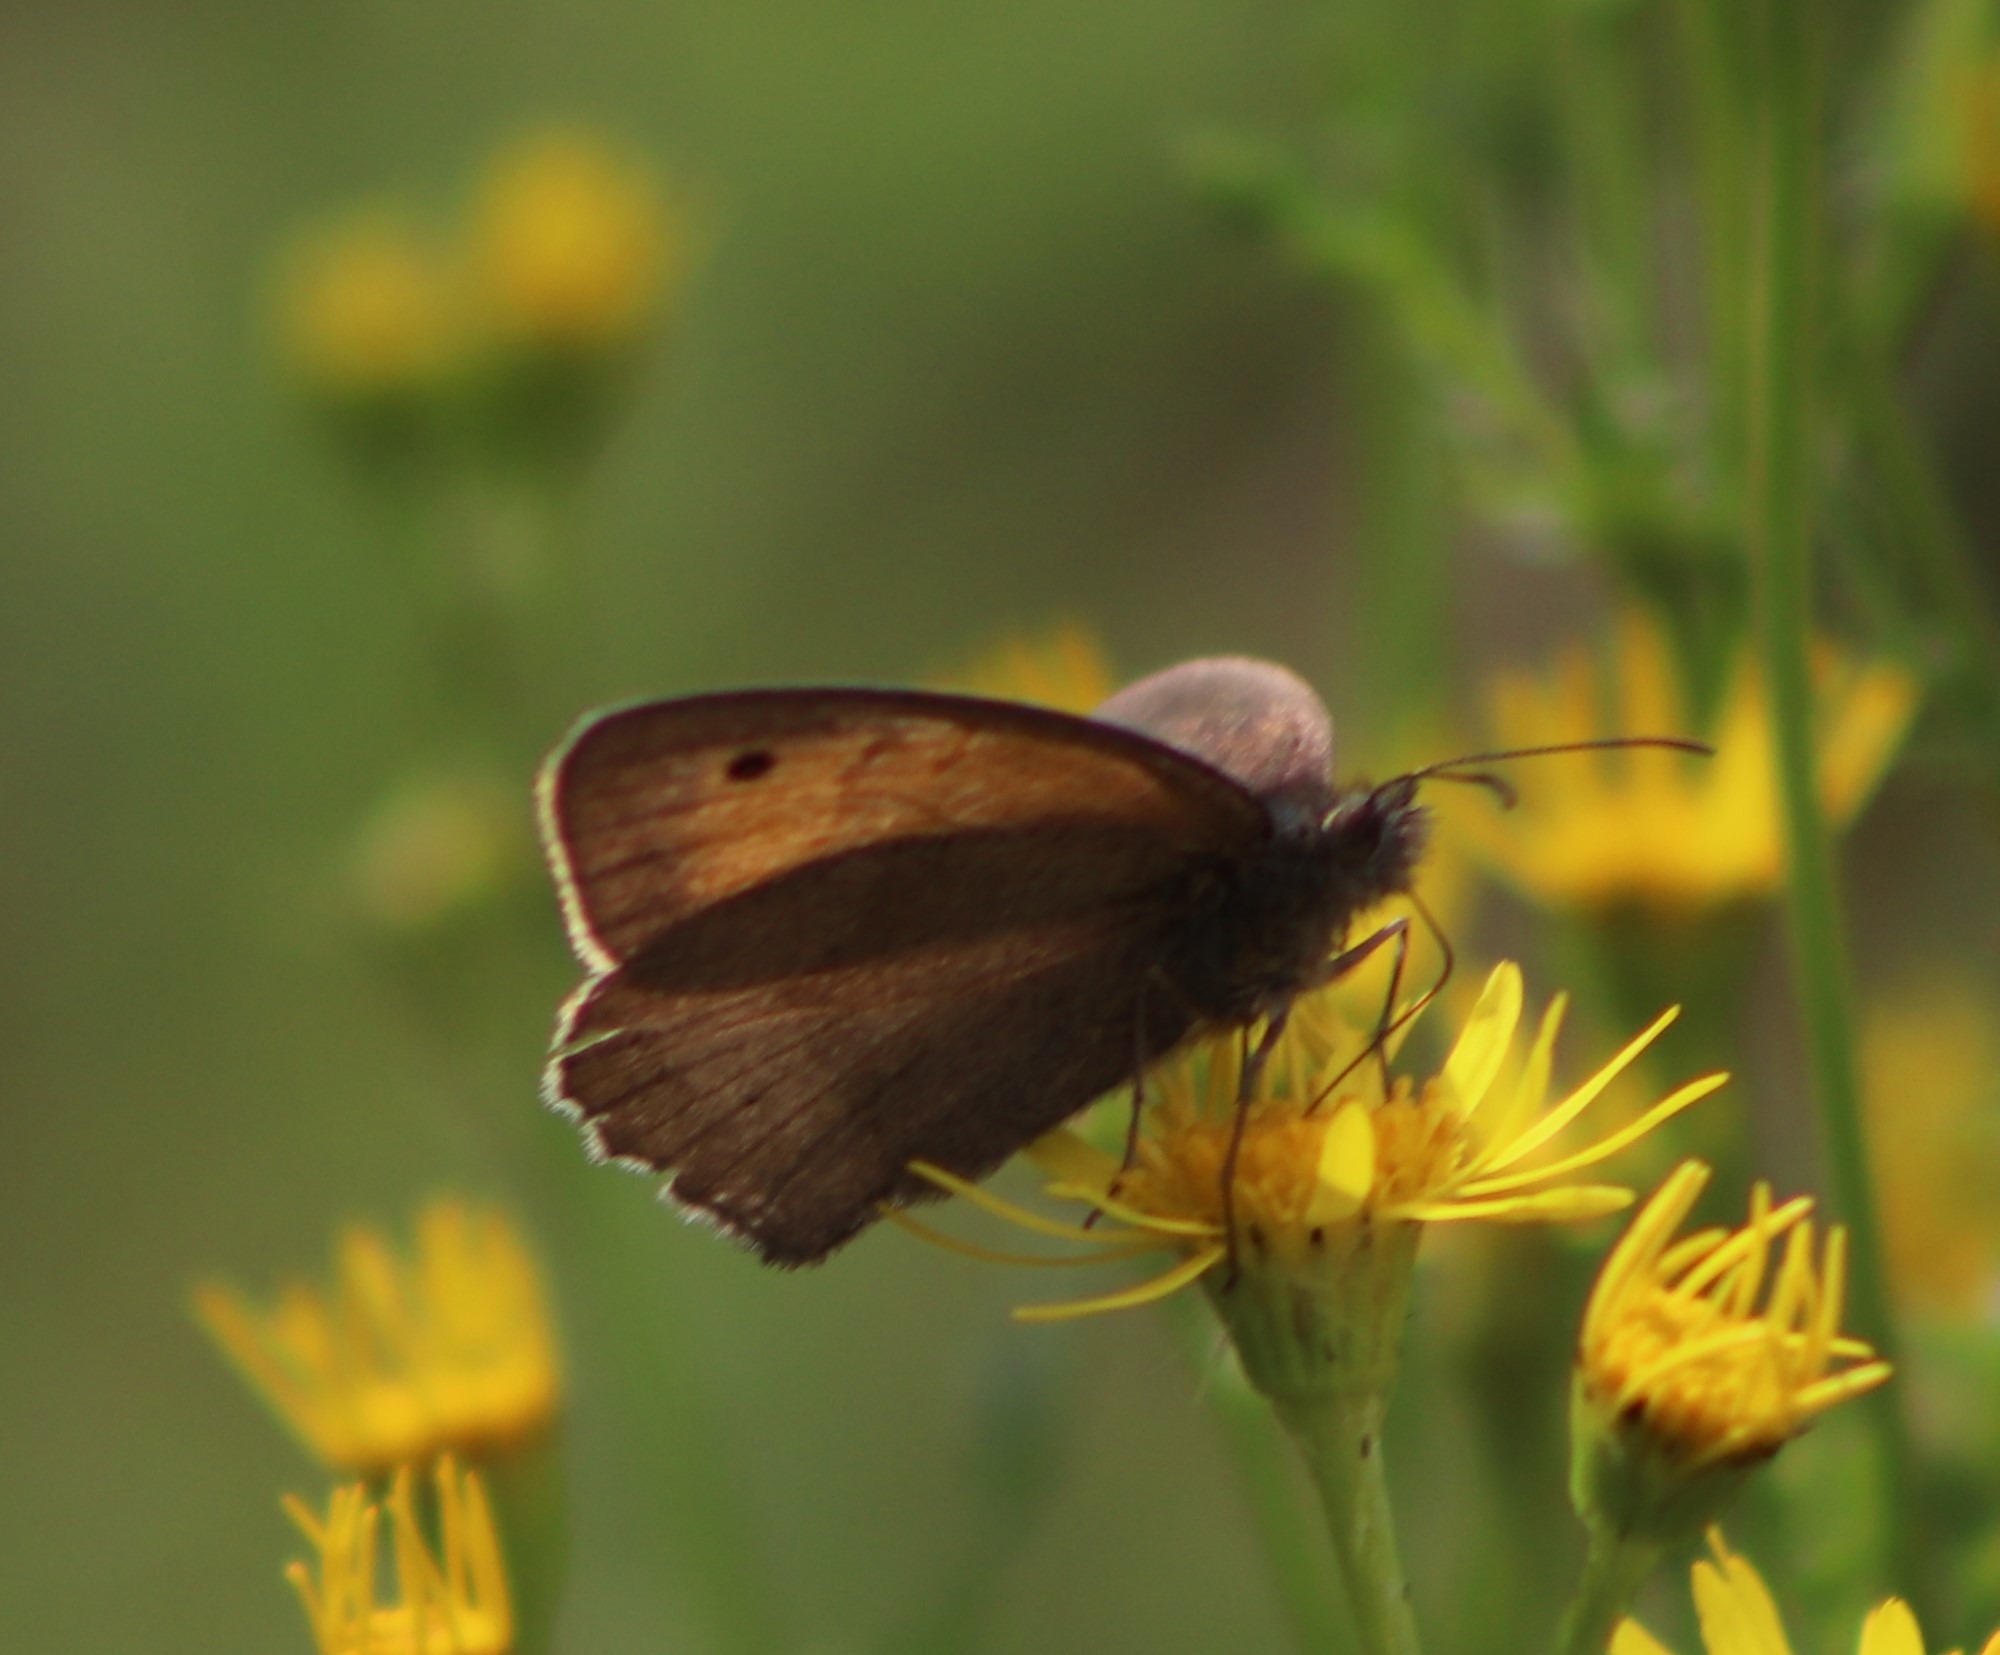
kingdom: Animalia
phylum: Arthropoda
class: Insecta
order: Lepidoptera
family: Nymphalidae
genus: Maniola
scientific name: Maniola jurtina
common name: Græsrandøje
